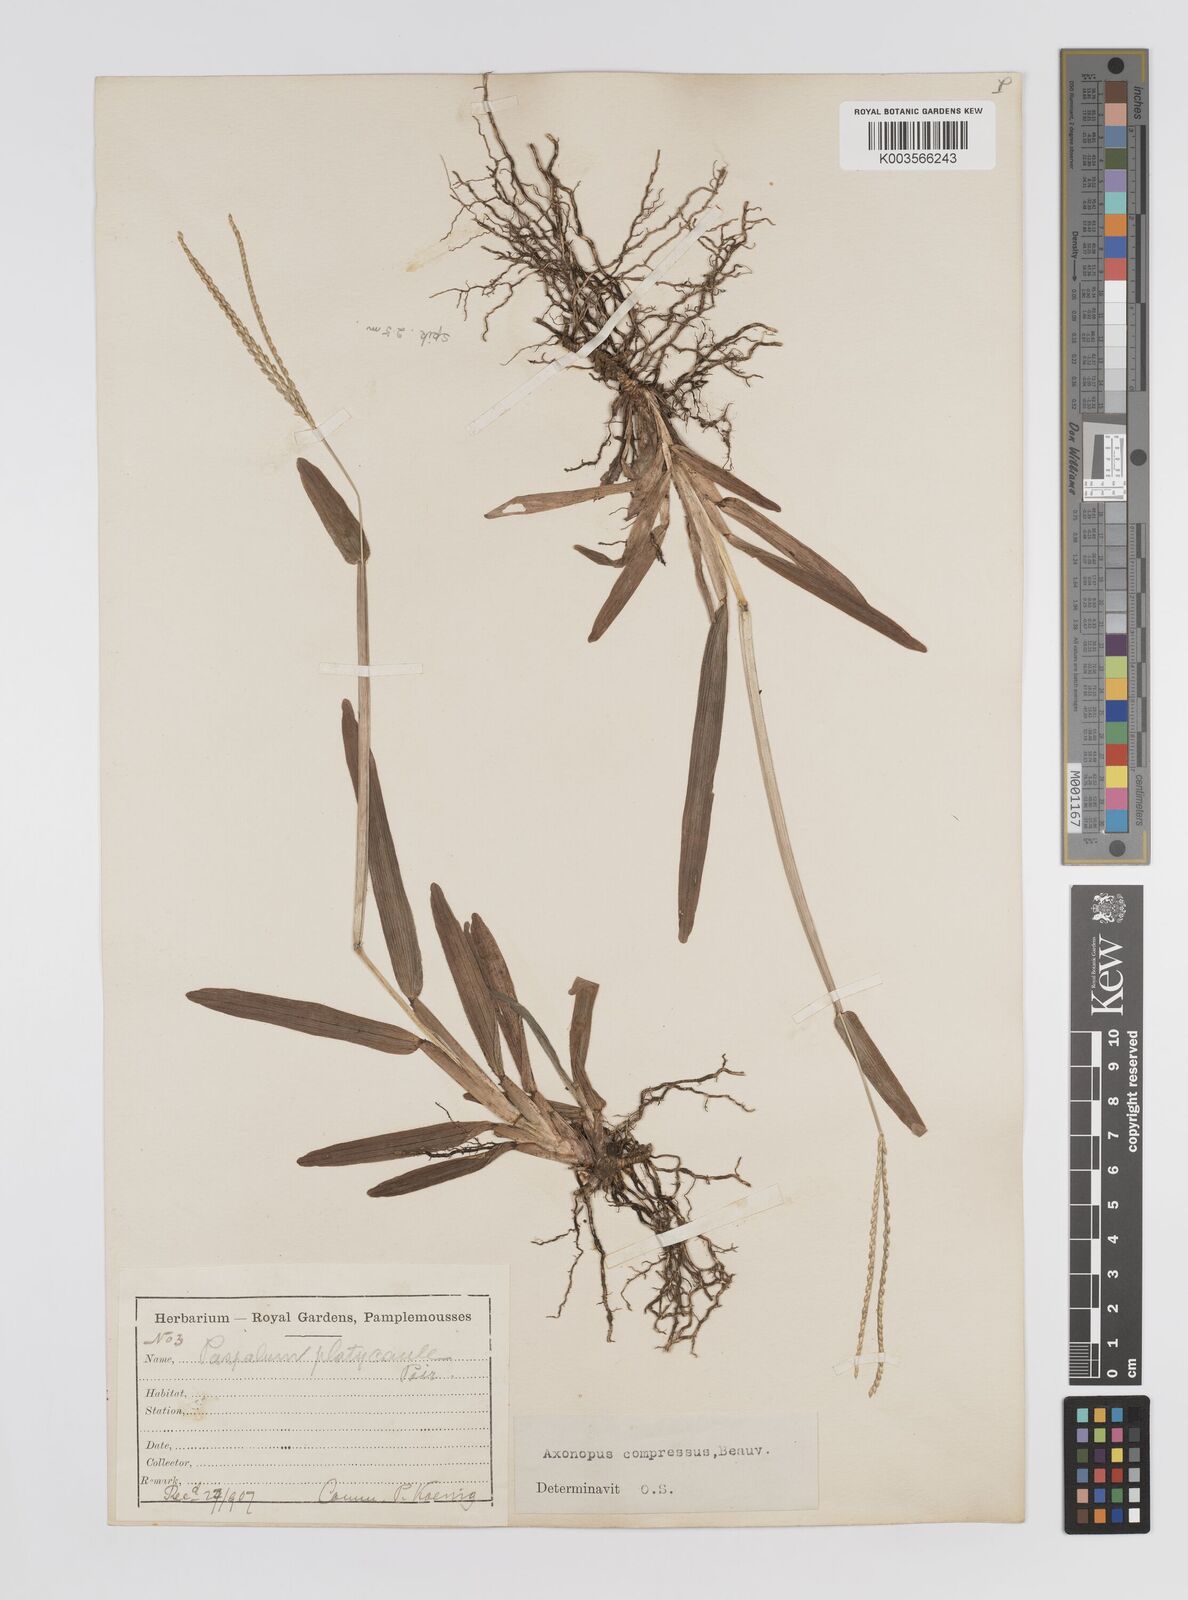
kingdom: Plantae
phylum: Tracheophyta
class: Liliopsida
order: Poales
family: Poaceae
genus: Axonopus
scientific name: Axonopus compressus
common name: American carpet grass
